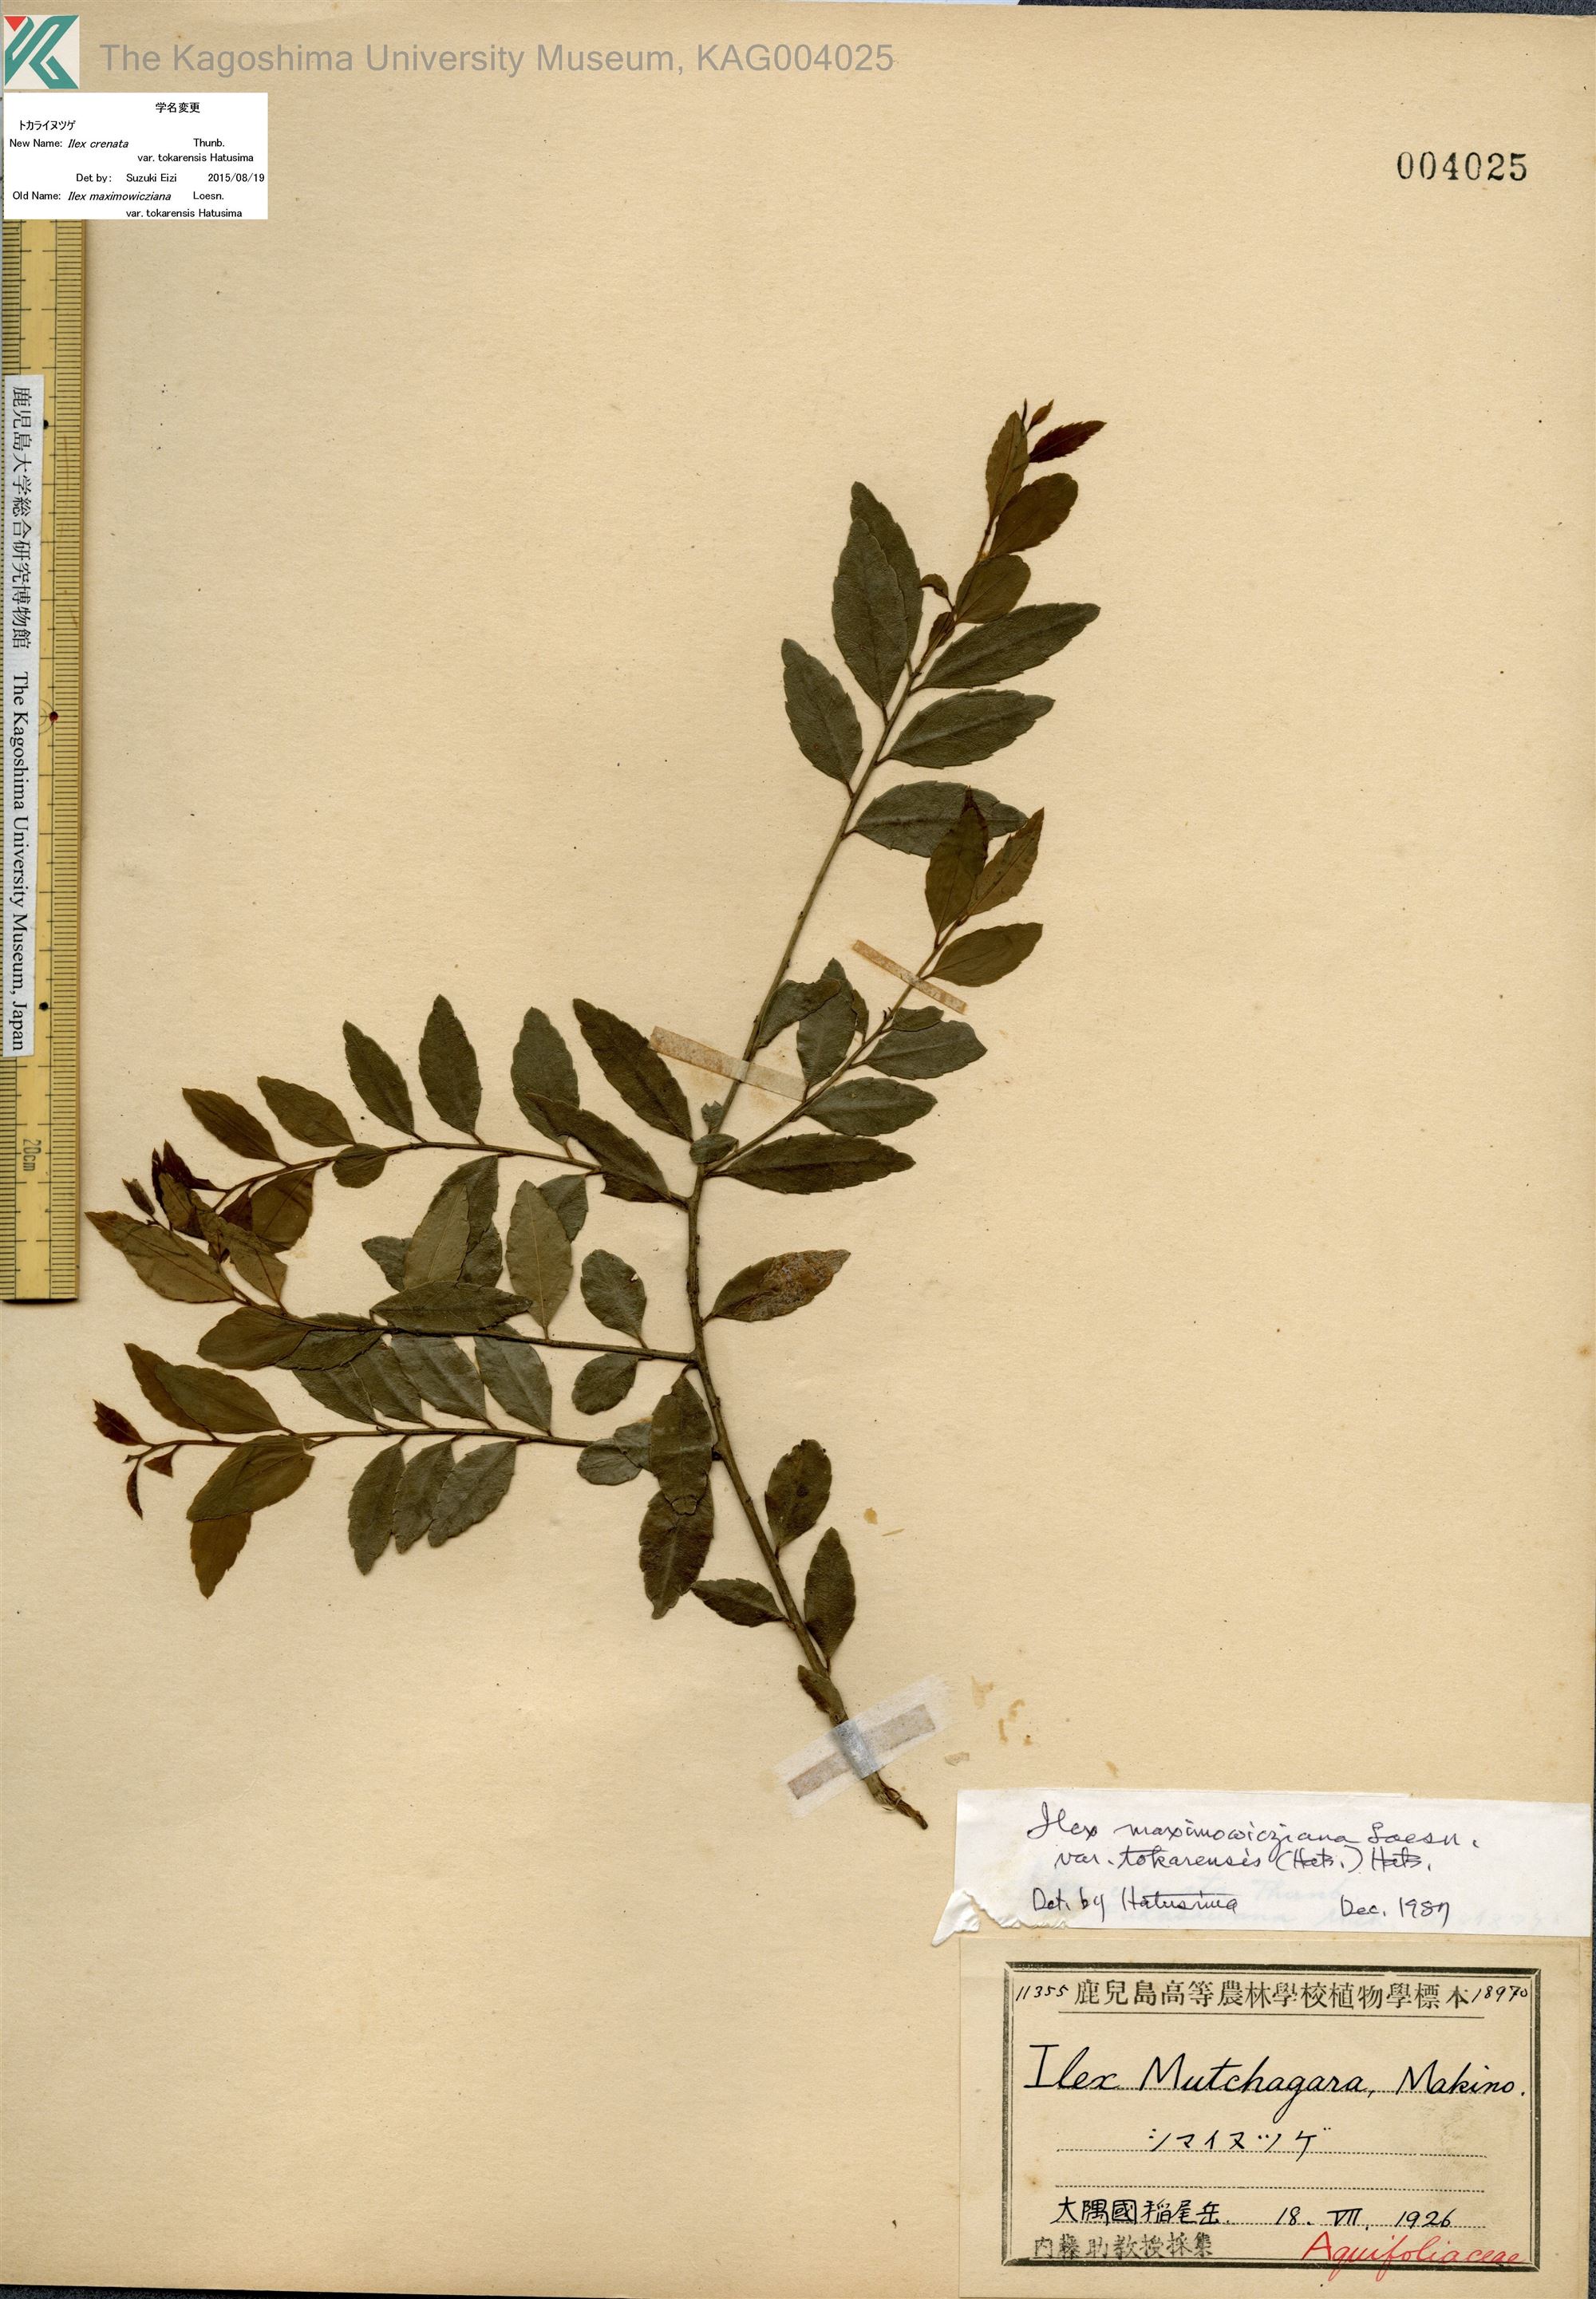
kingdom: Plantae
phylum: Tracheophyta
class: Magnoliopsida
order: Aquifoliales
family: Aquifoliaceae
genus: Ilex
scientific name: Ilex crenata
